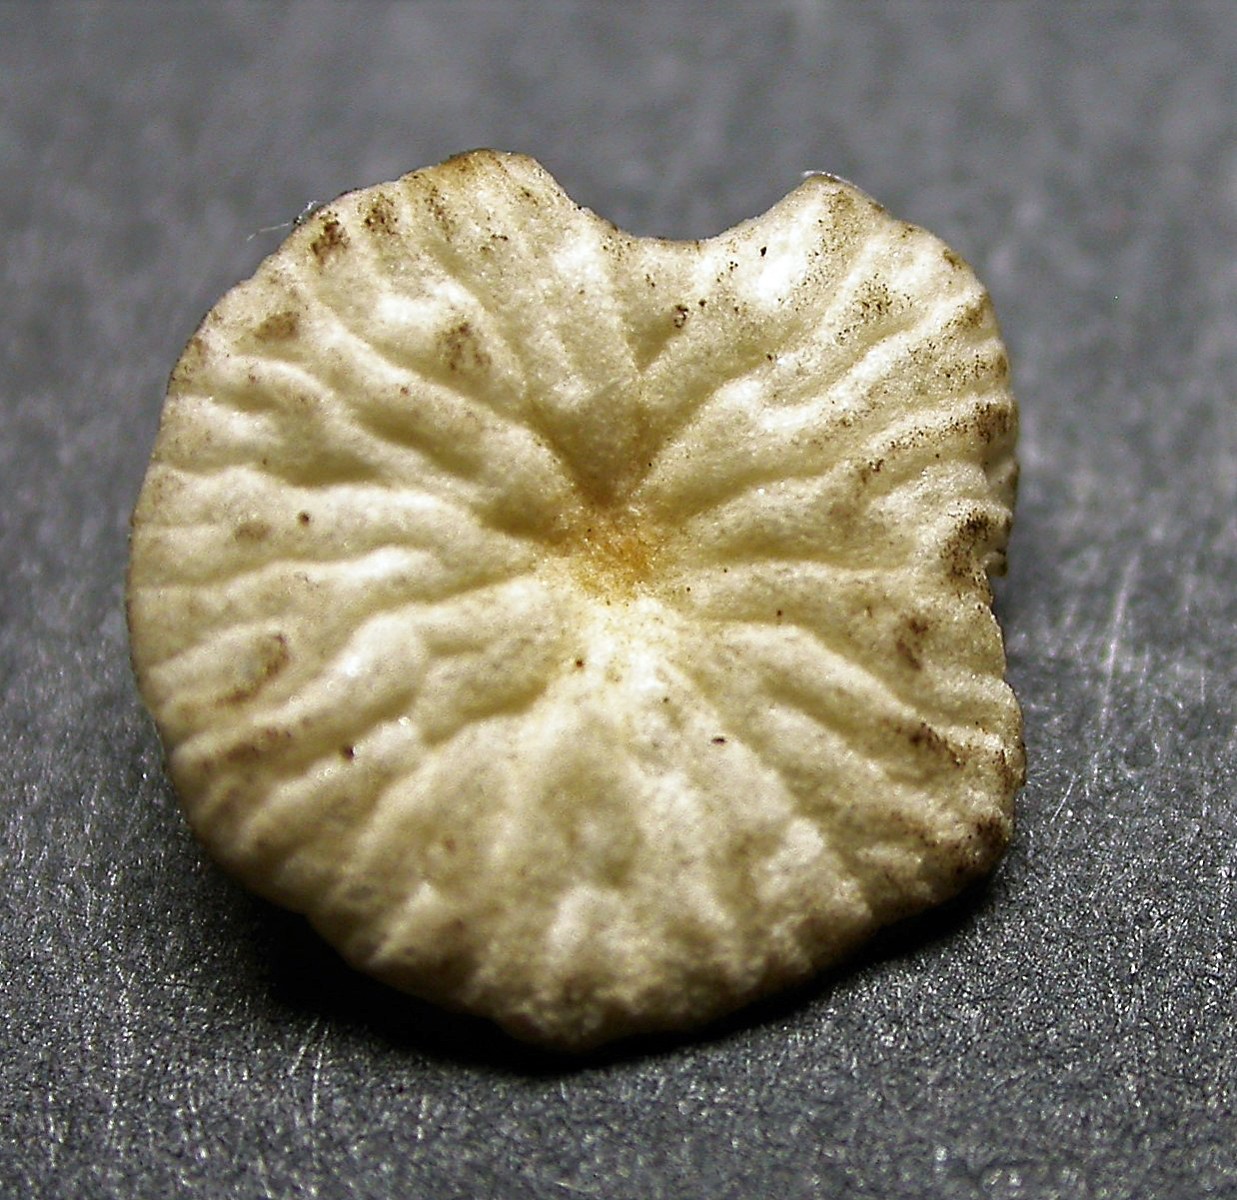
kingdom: Fungi
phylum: Basidiomycota
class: Agaricomycetes
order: Agaricales
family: Omphalotaceae
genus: Collybiopsis
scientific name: Collybiopsis vaillantii
